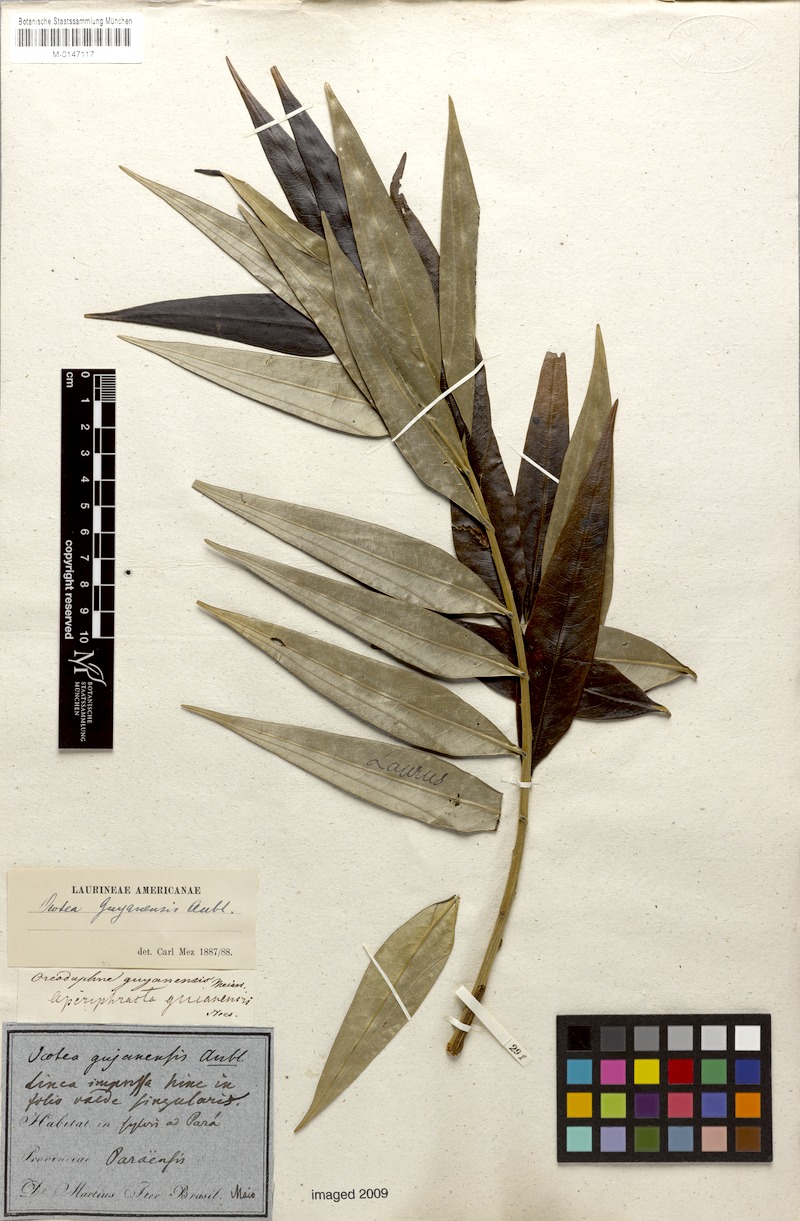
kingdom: Plantae
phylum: Tracheophyta
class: Magnoliopsida
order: Laurales
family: Lauraceae
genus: Ocotea
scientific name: Ocotea guianensis
